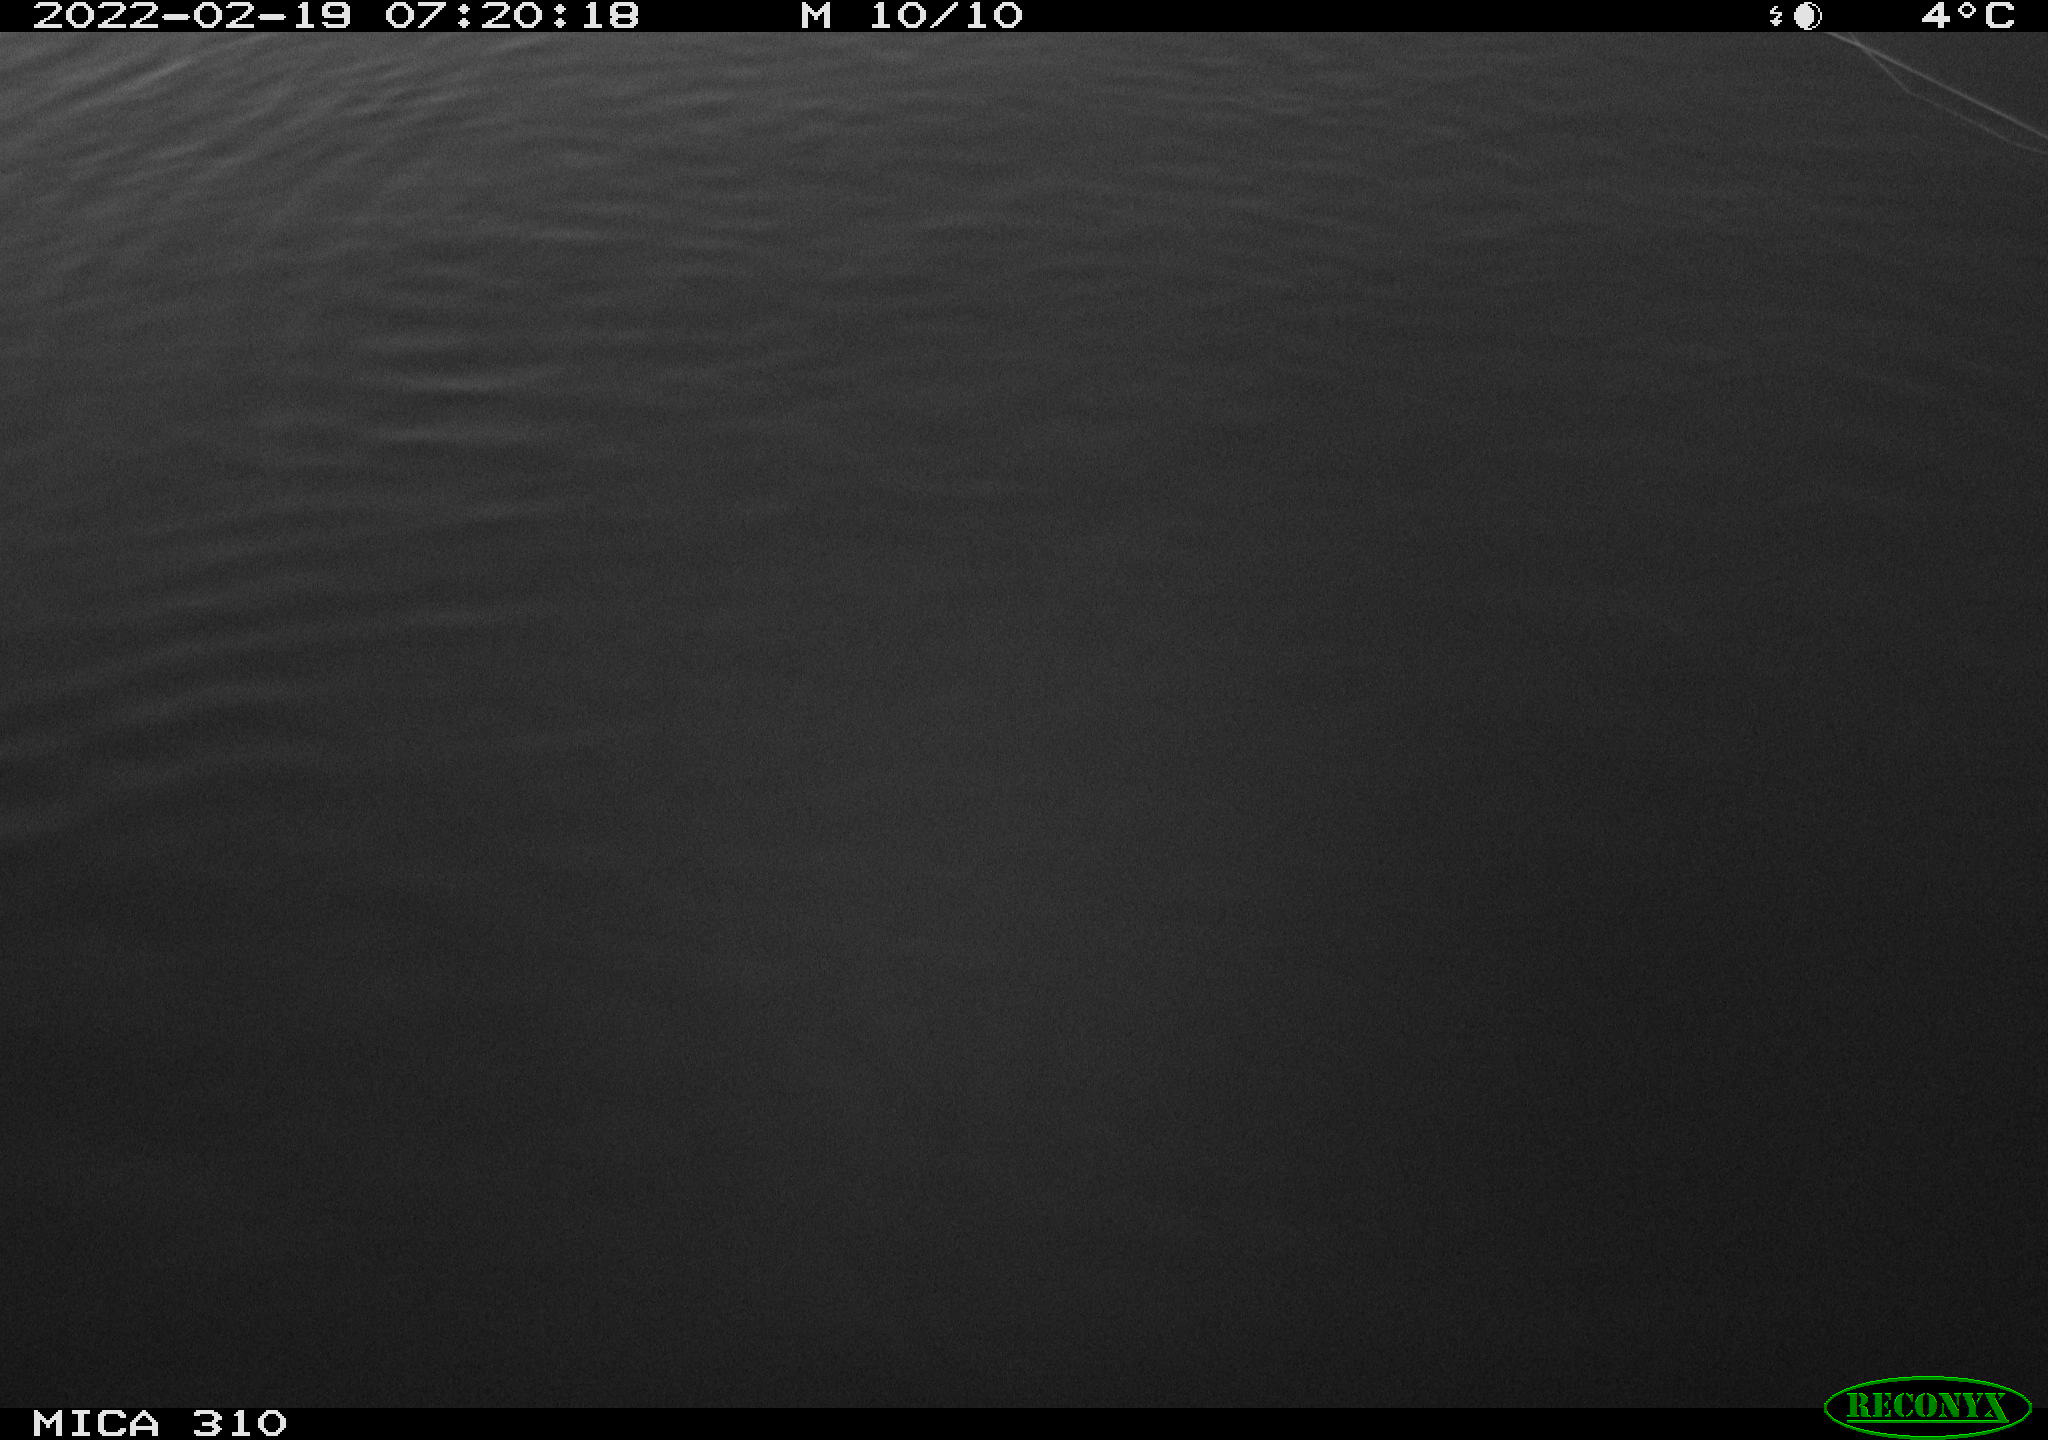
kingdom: Animalia
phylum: Chordata
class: Aves
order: Anseriformes
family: Anatidae
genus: Anas
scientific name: Anas platyrhynchos
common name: Mallard
